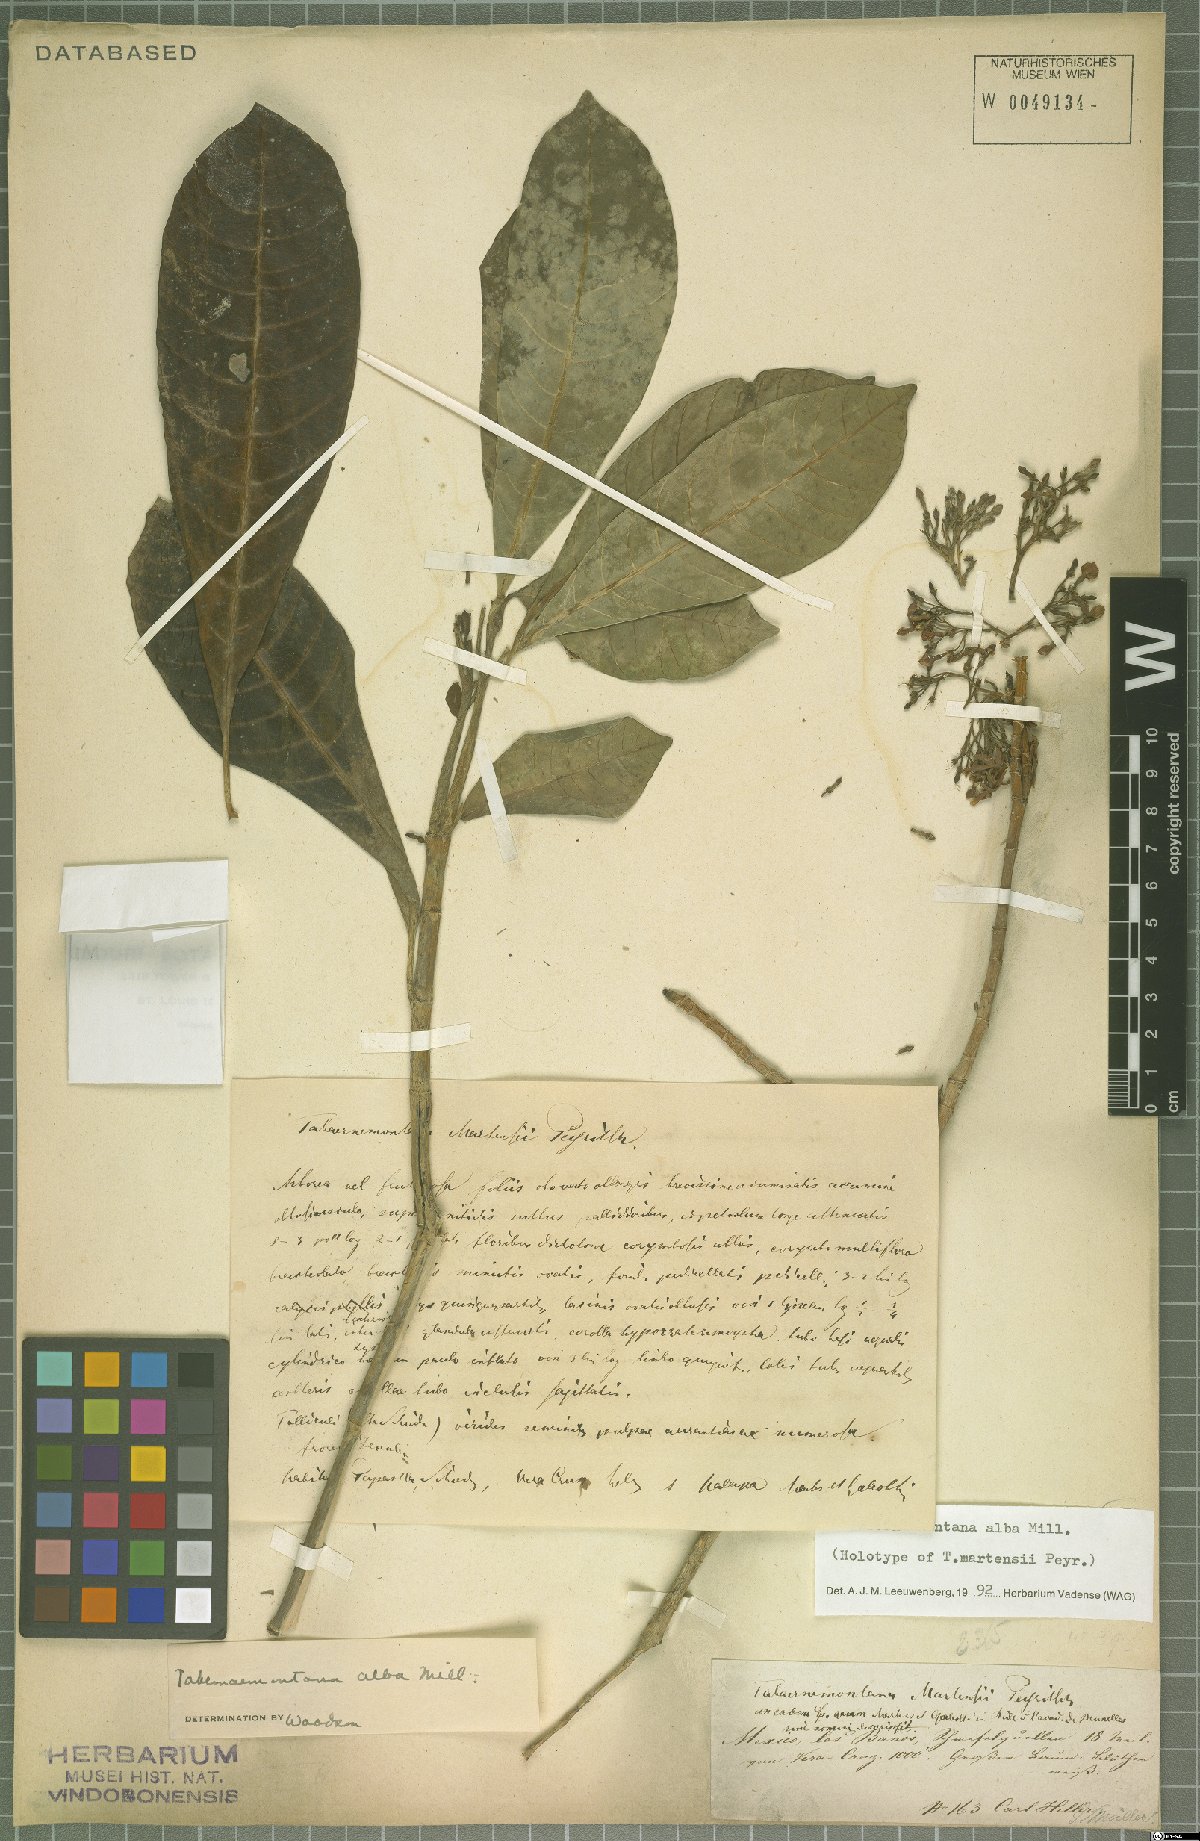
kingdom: Plantae
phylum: Tracheophyta
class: Magnoliopsida
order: Gentianales
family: Apocynaceae
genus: Tabernaemontana
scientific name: Tabernaemontana alba
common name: White milkwood
